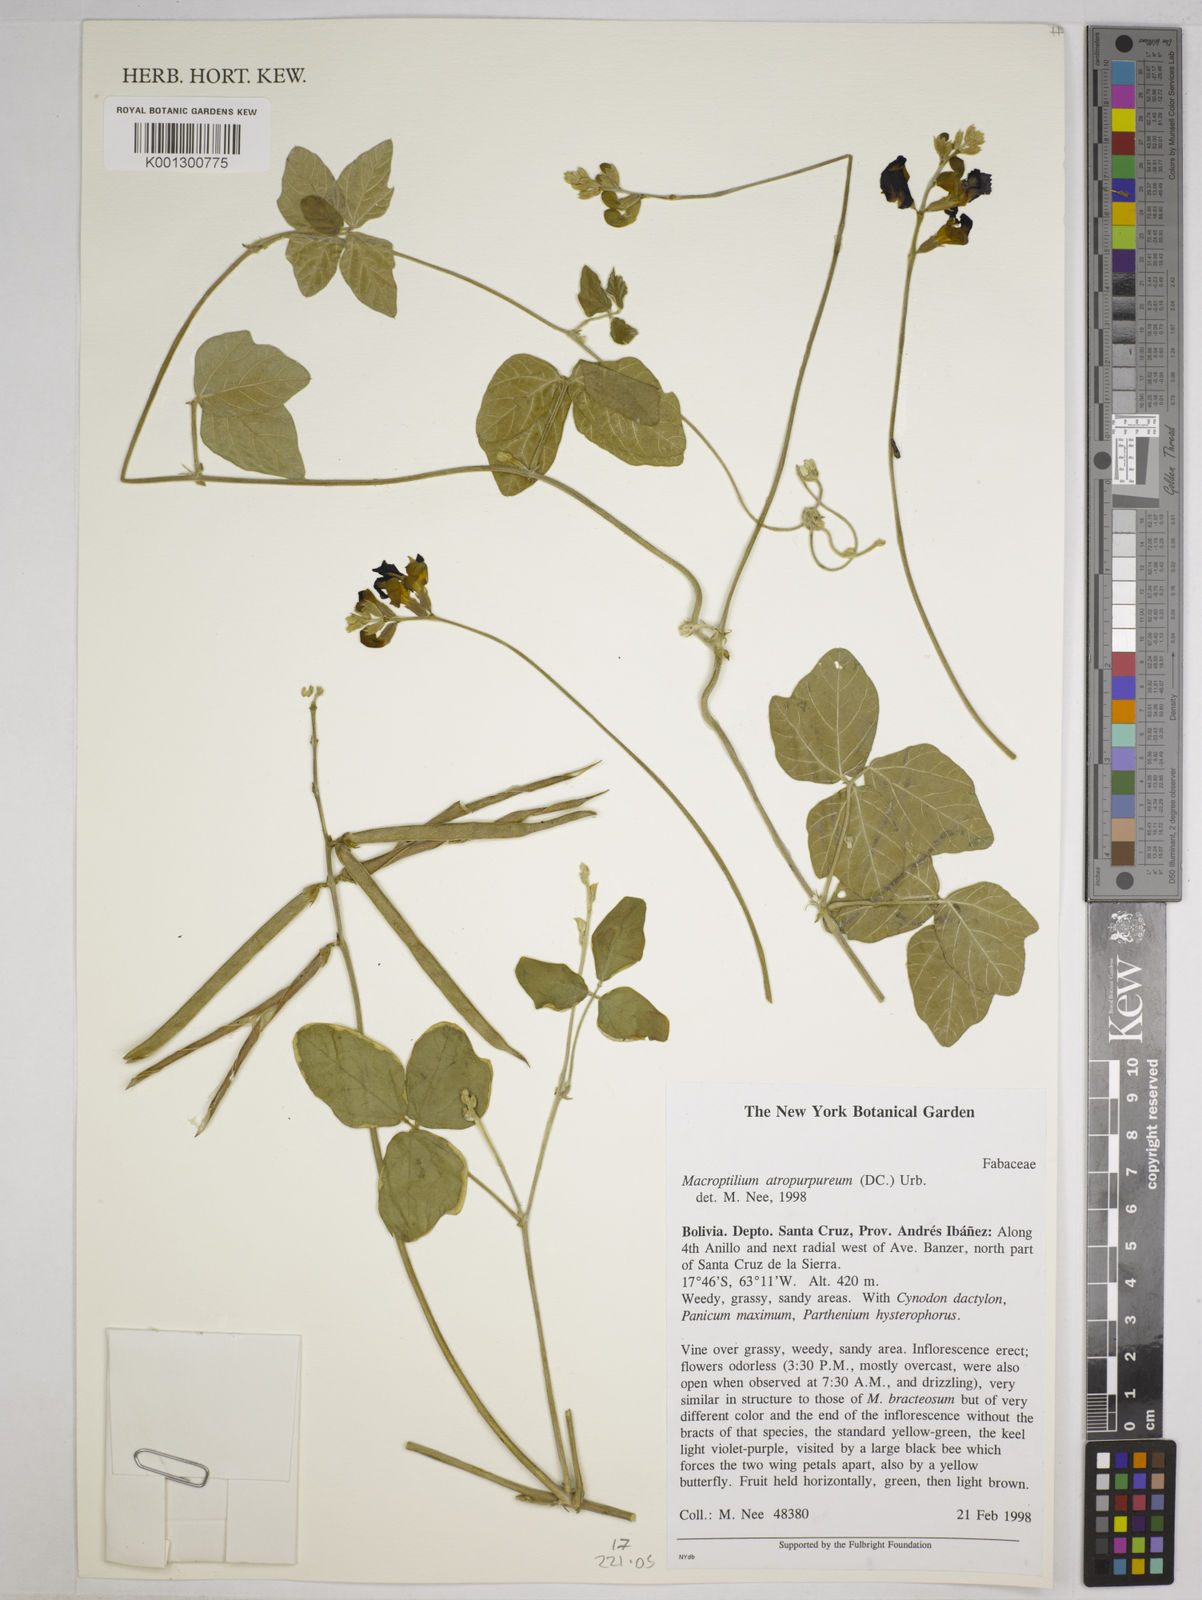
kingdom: Plantae
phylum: Tracheophyta
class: Magnoliopsida
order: Fabales
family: Fabaceae
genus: Macroptilium
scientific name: Macroptilium atropurpureum
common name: Purple bushbean
